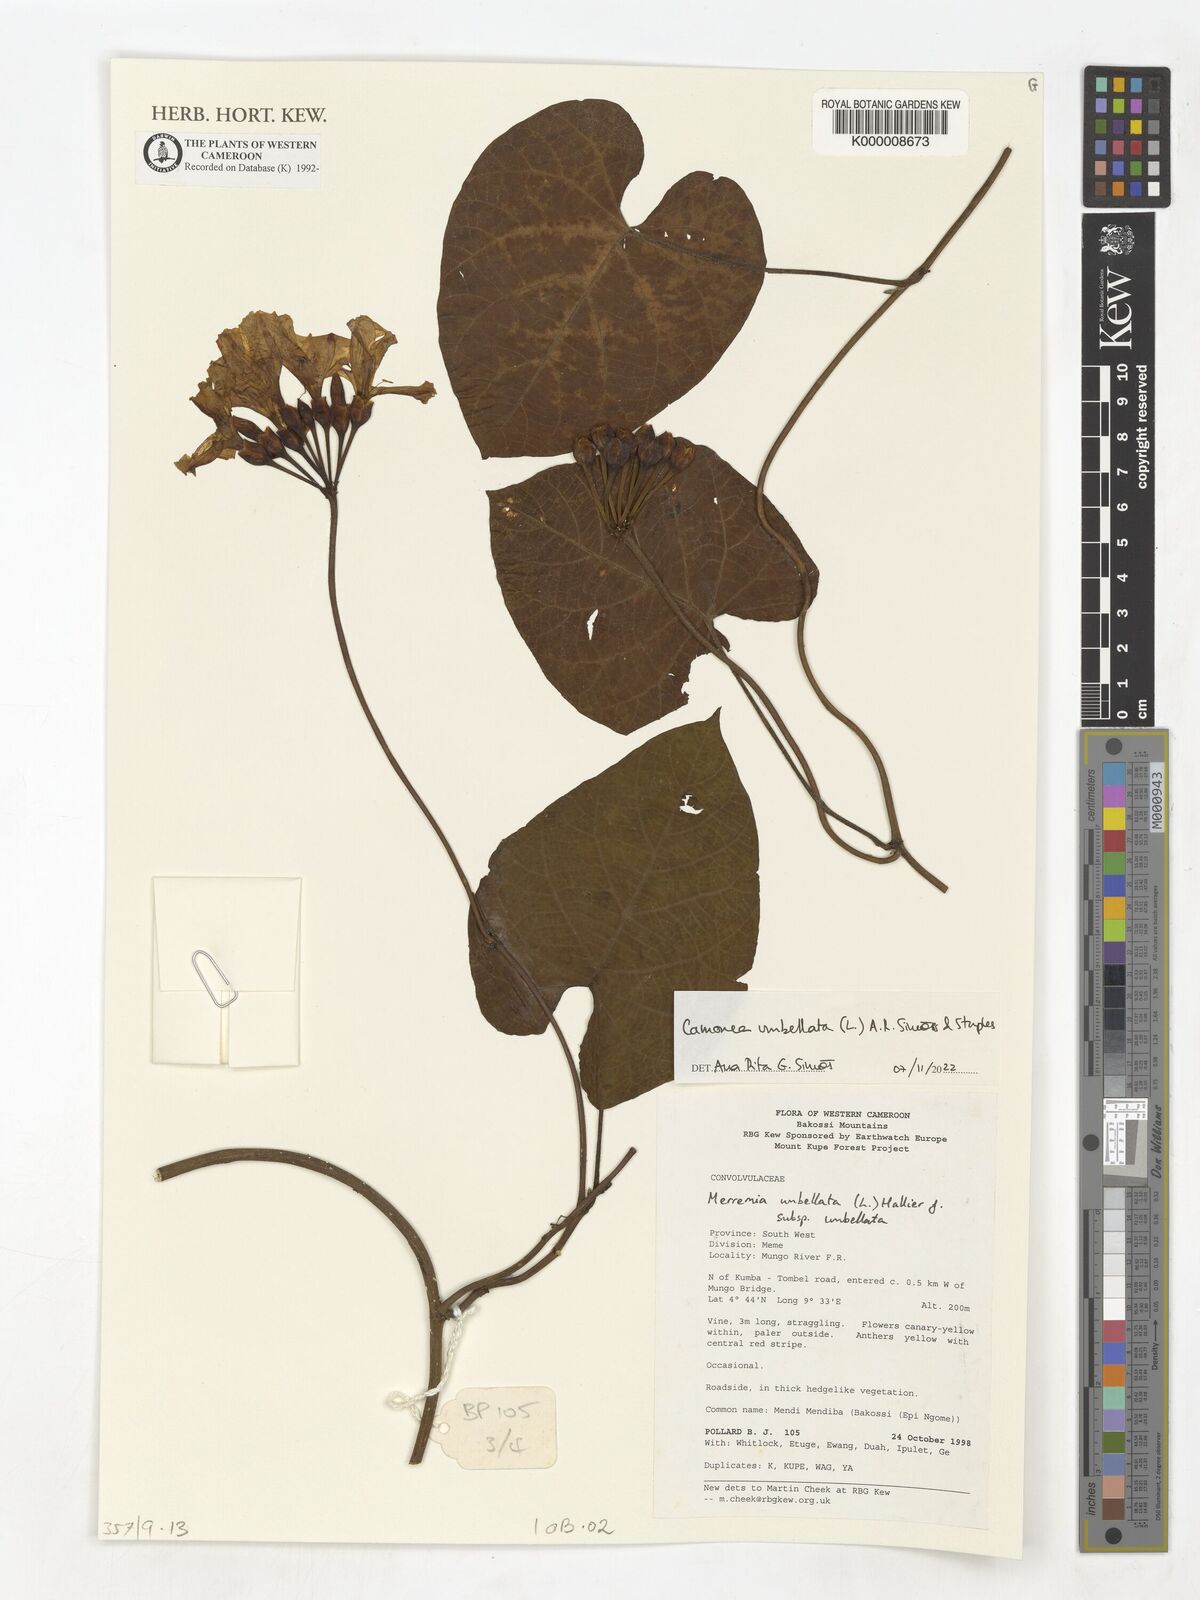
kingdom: Plantae
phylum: Tracheophyta
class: Magnoliopsida
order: Solanales
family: Convolvulaceae
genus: Camonea
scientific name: Camonea umbellata
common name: Hogvine
